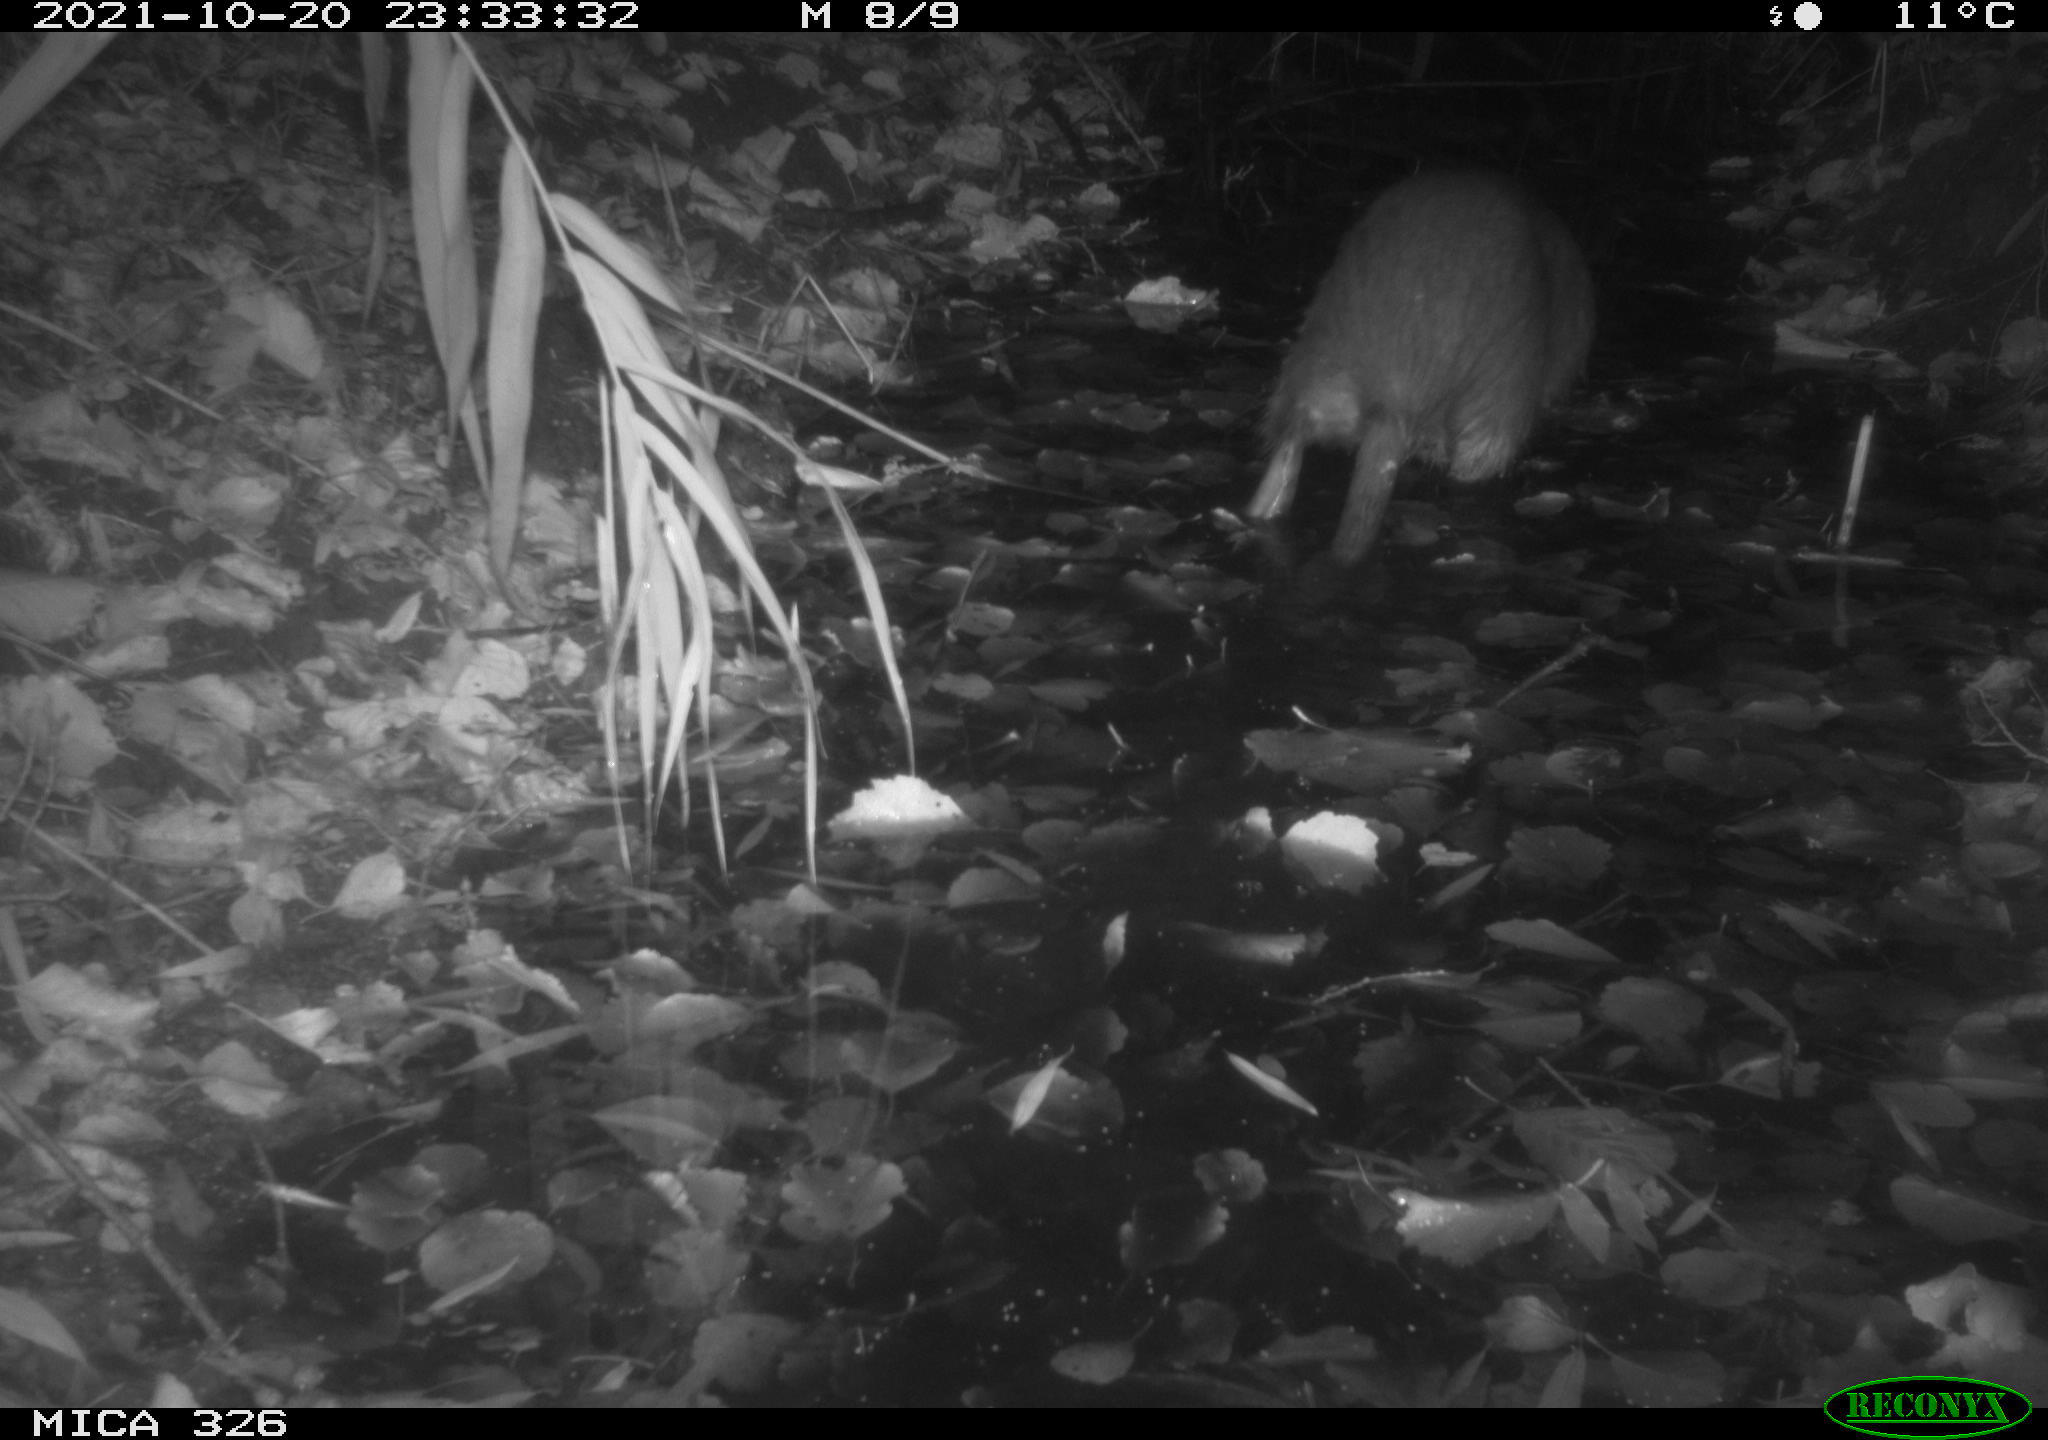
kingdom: Animalia
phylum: Chordata
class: Mammalia
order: Rodentia
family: Myocastoridae
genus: Myocastor
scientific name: Myocastor coypus
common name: Coypu
